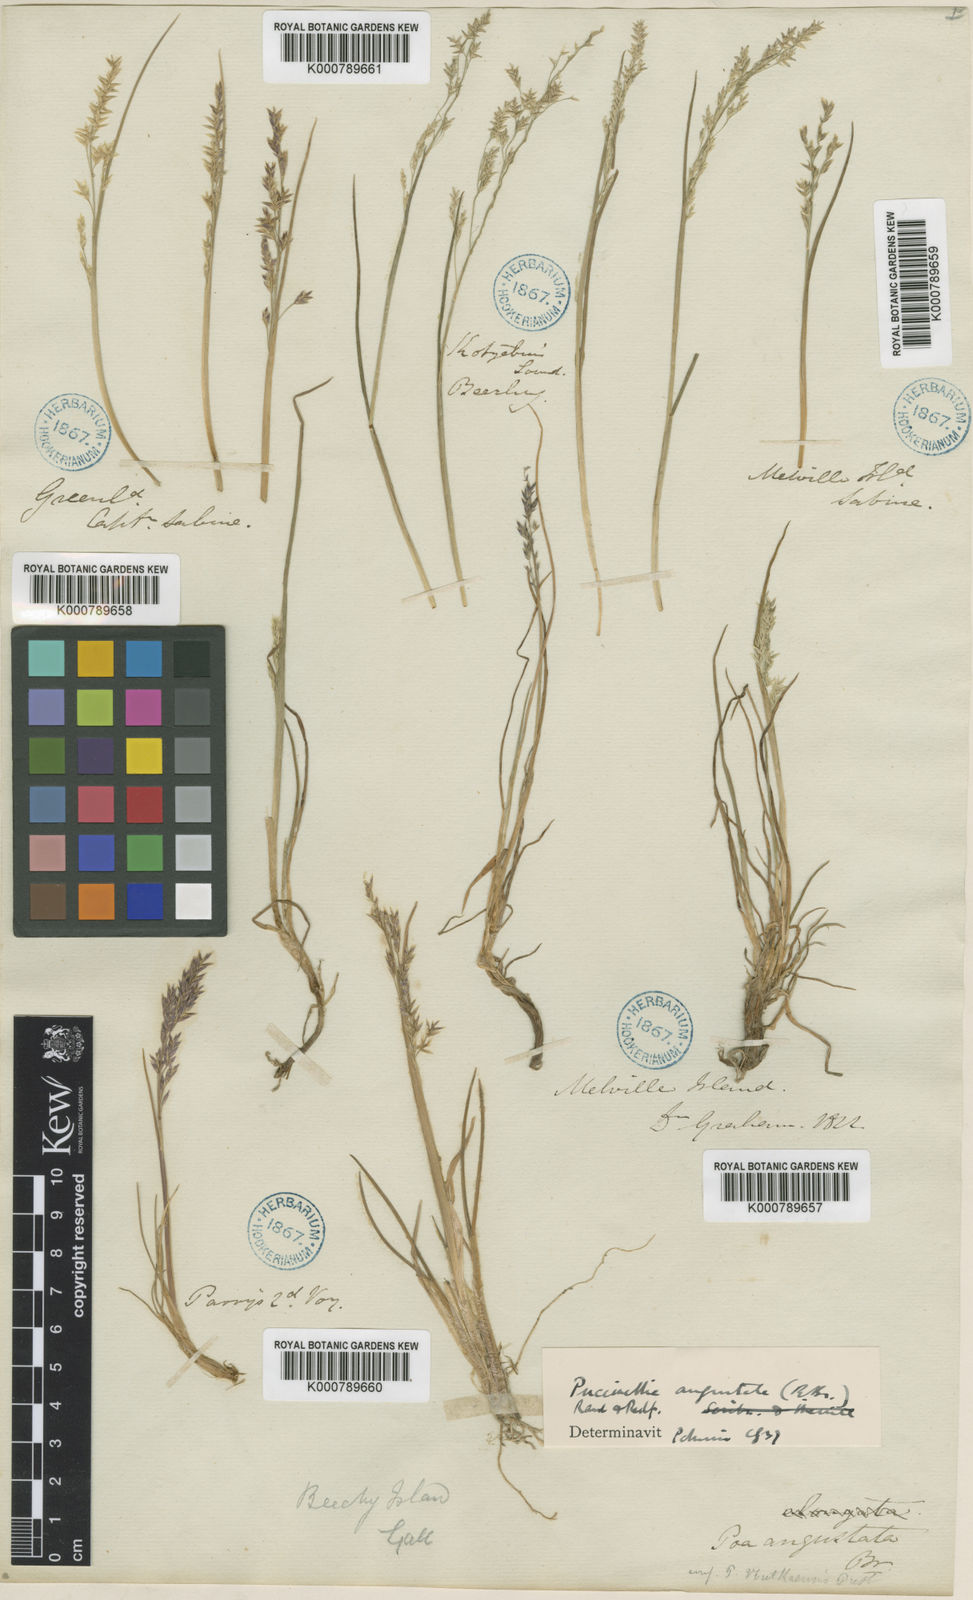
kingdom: Plantae
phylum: Tracheophyta
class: Liliopsida
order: Poales
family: Poaceae
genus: Puccinellia
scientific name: Puccinellia angustata
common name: Narrow alkaligrass
